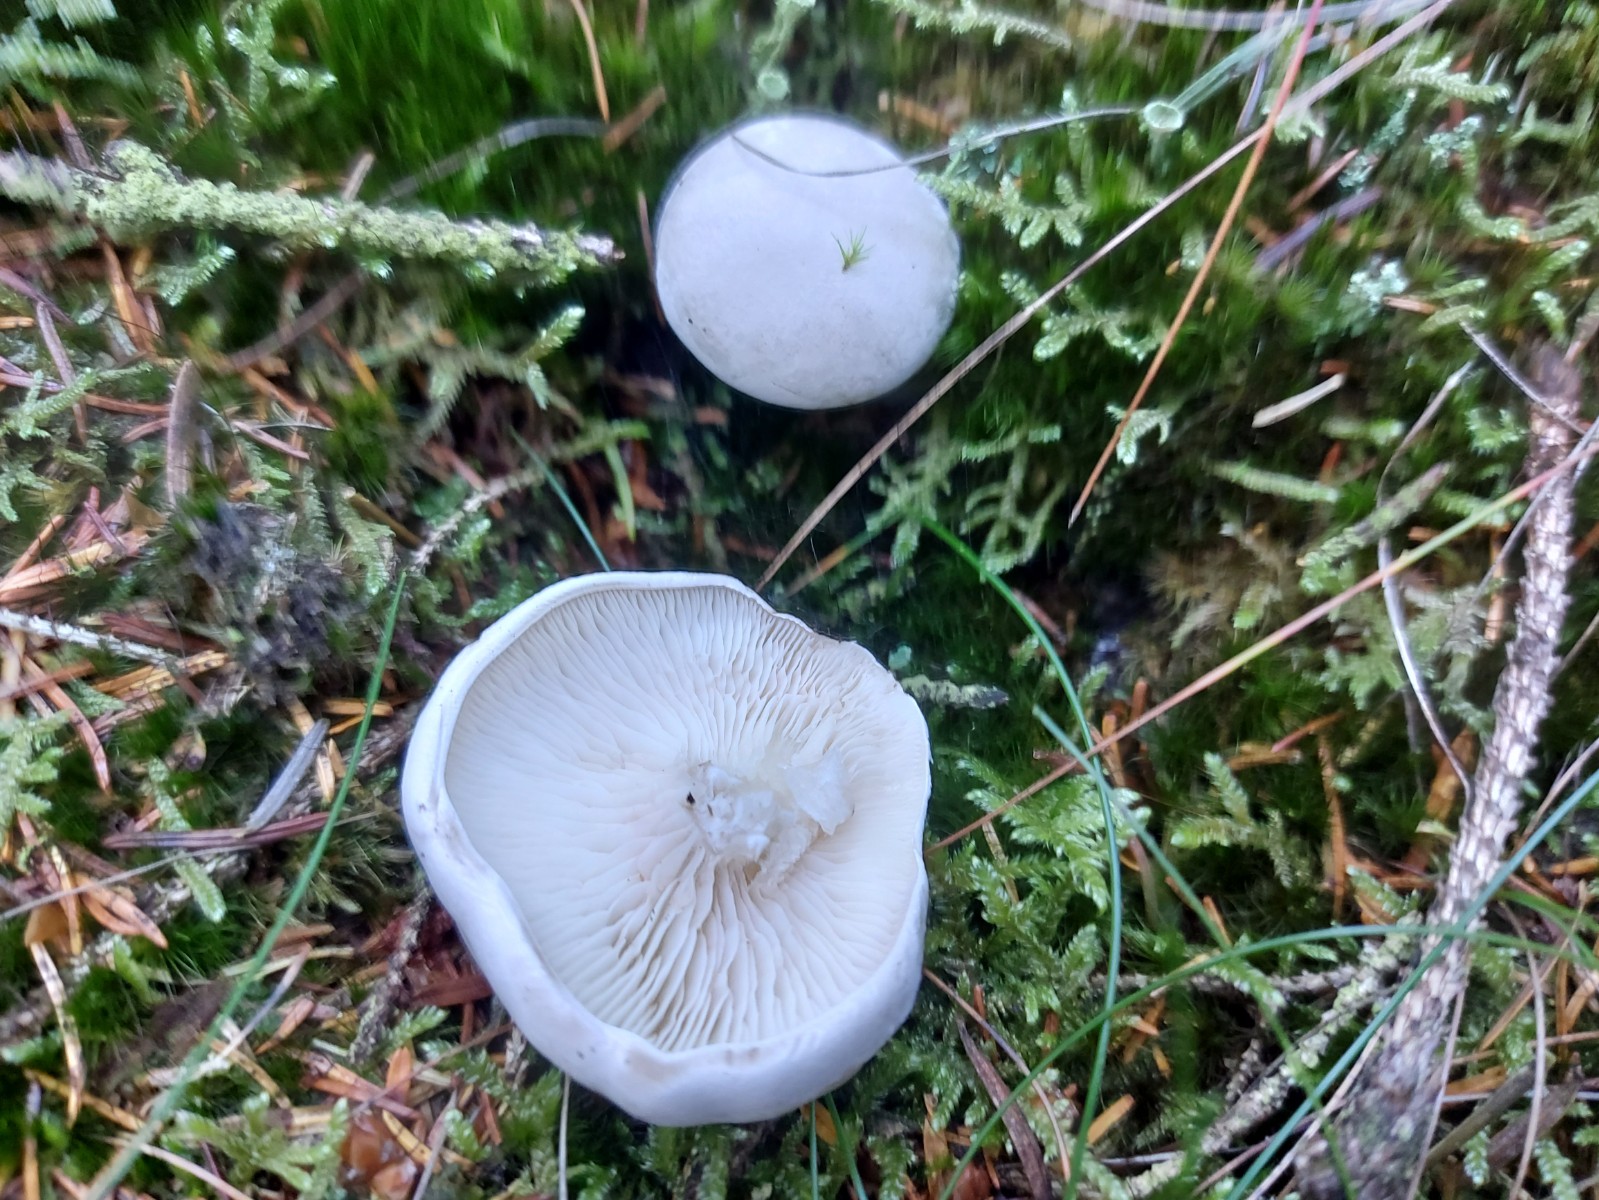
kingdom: Fungi
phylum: Basidiomycota
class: Agaricomycetes
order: Agaricales
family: Entolomataceae
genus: Clitopilus
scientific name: Clitopilus prunulus
